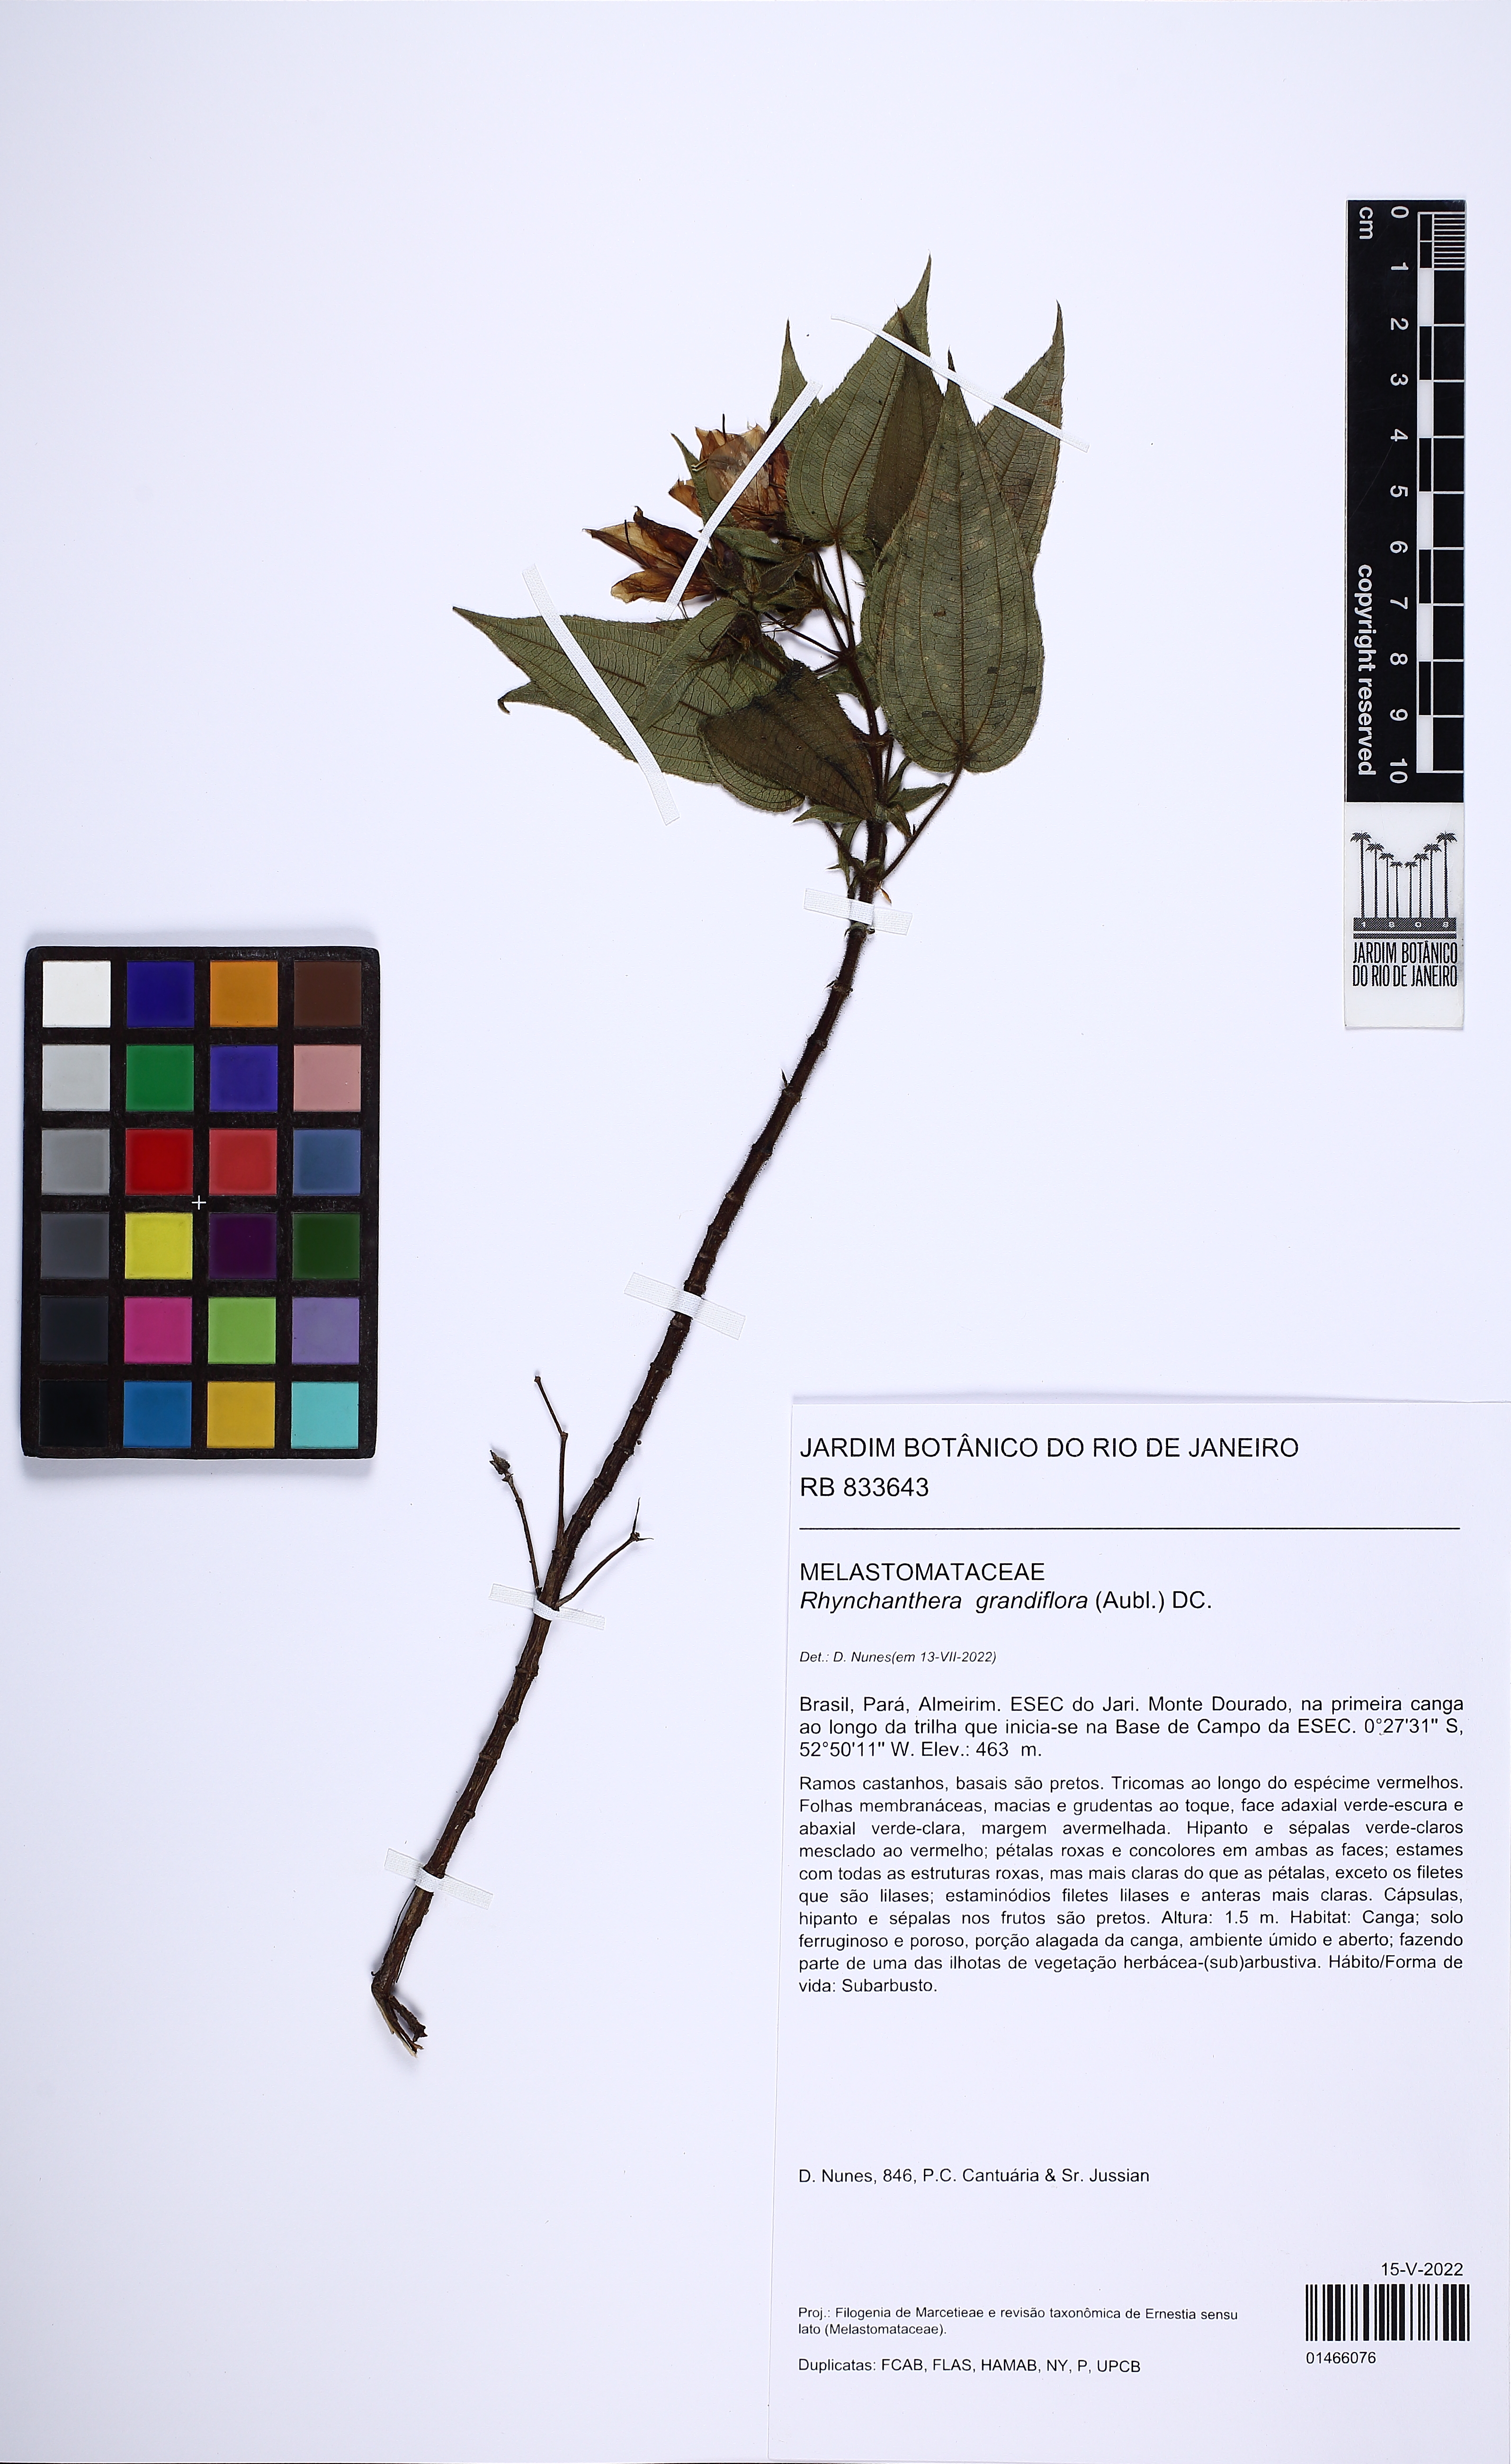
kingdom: Plantae
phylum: Tracheophyta
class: Magnoliopsida
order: Myrtales
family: Melastomataceae
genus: Rhynchanthera
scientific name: Rhynchanthera grandiflora
